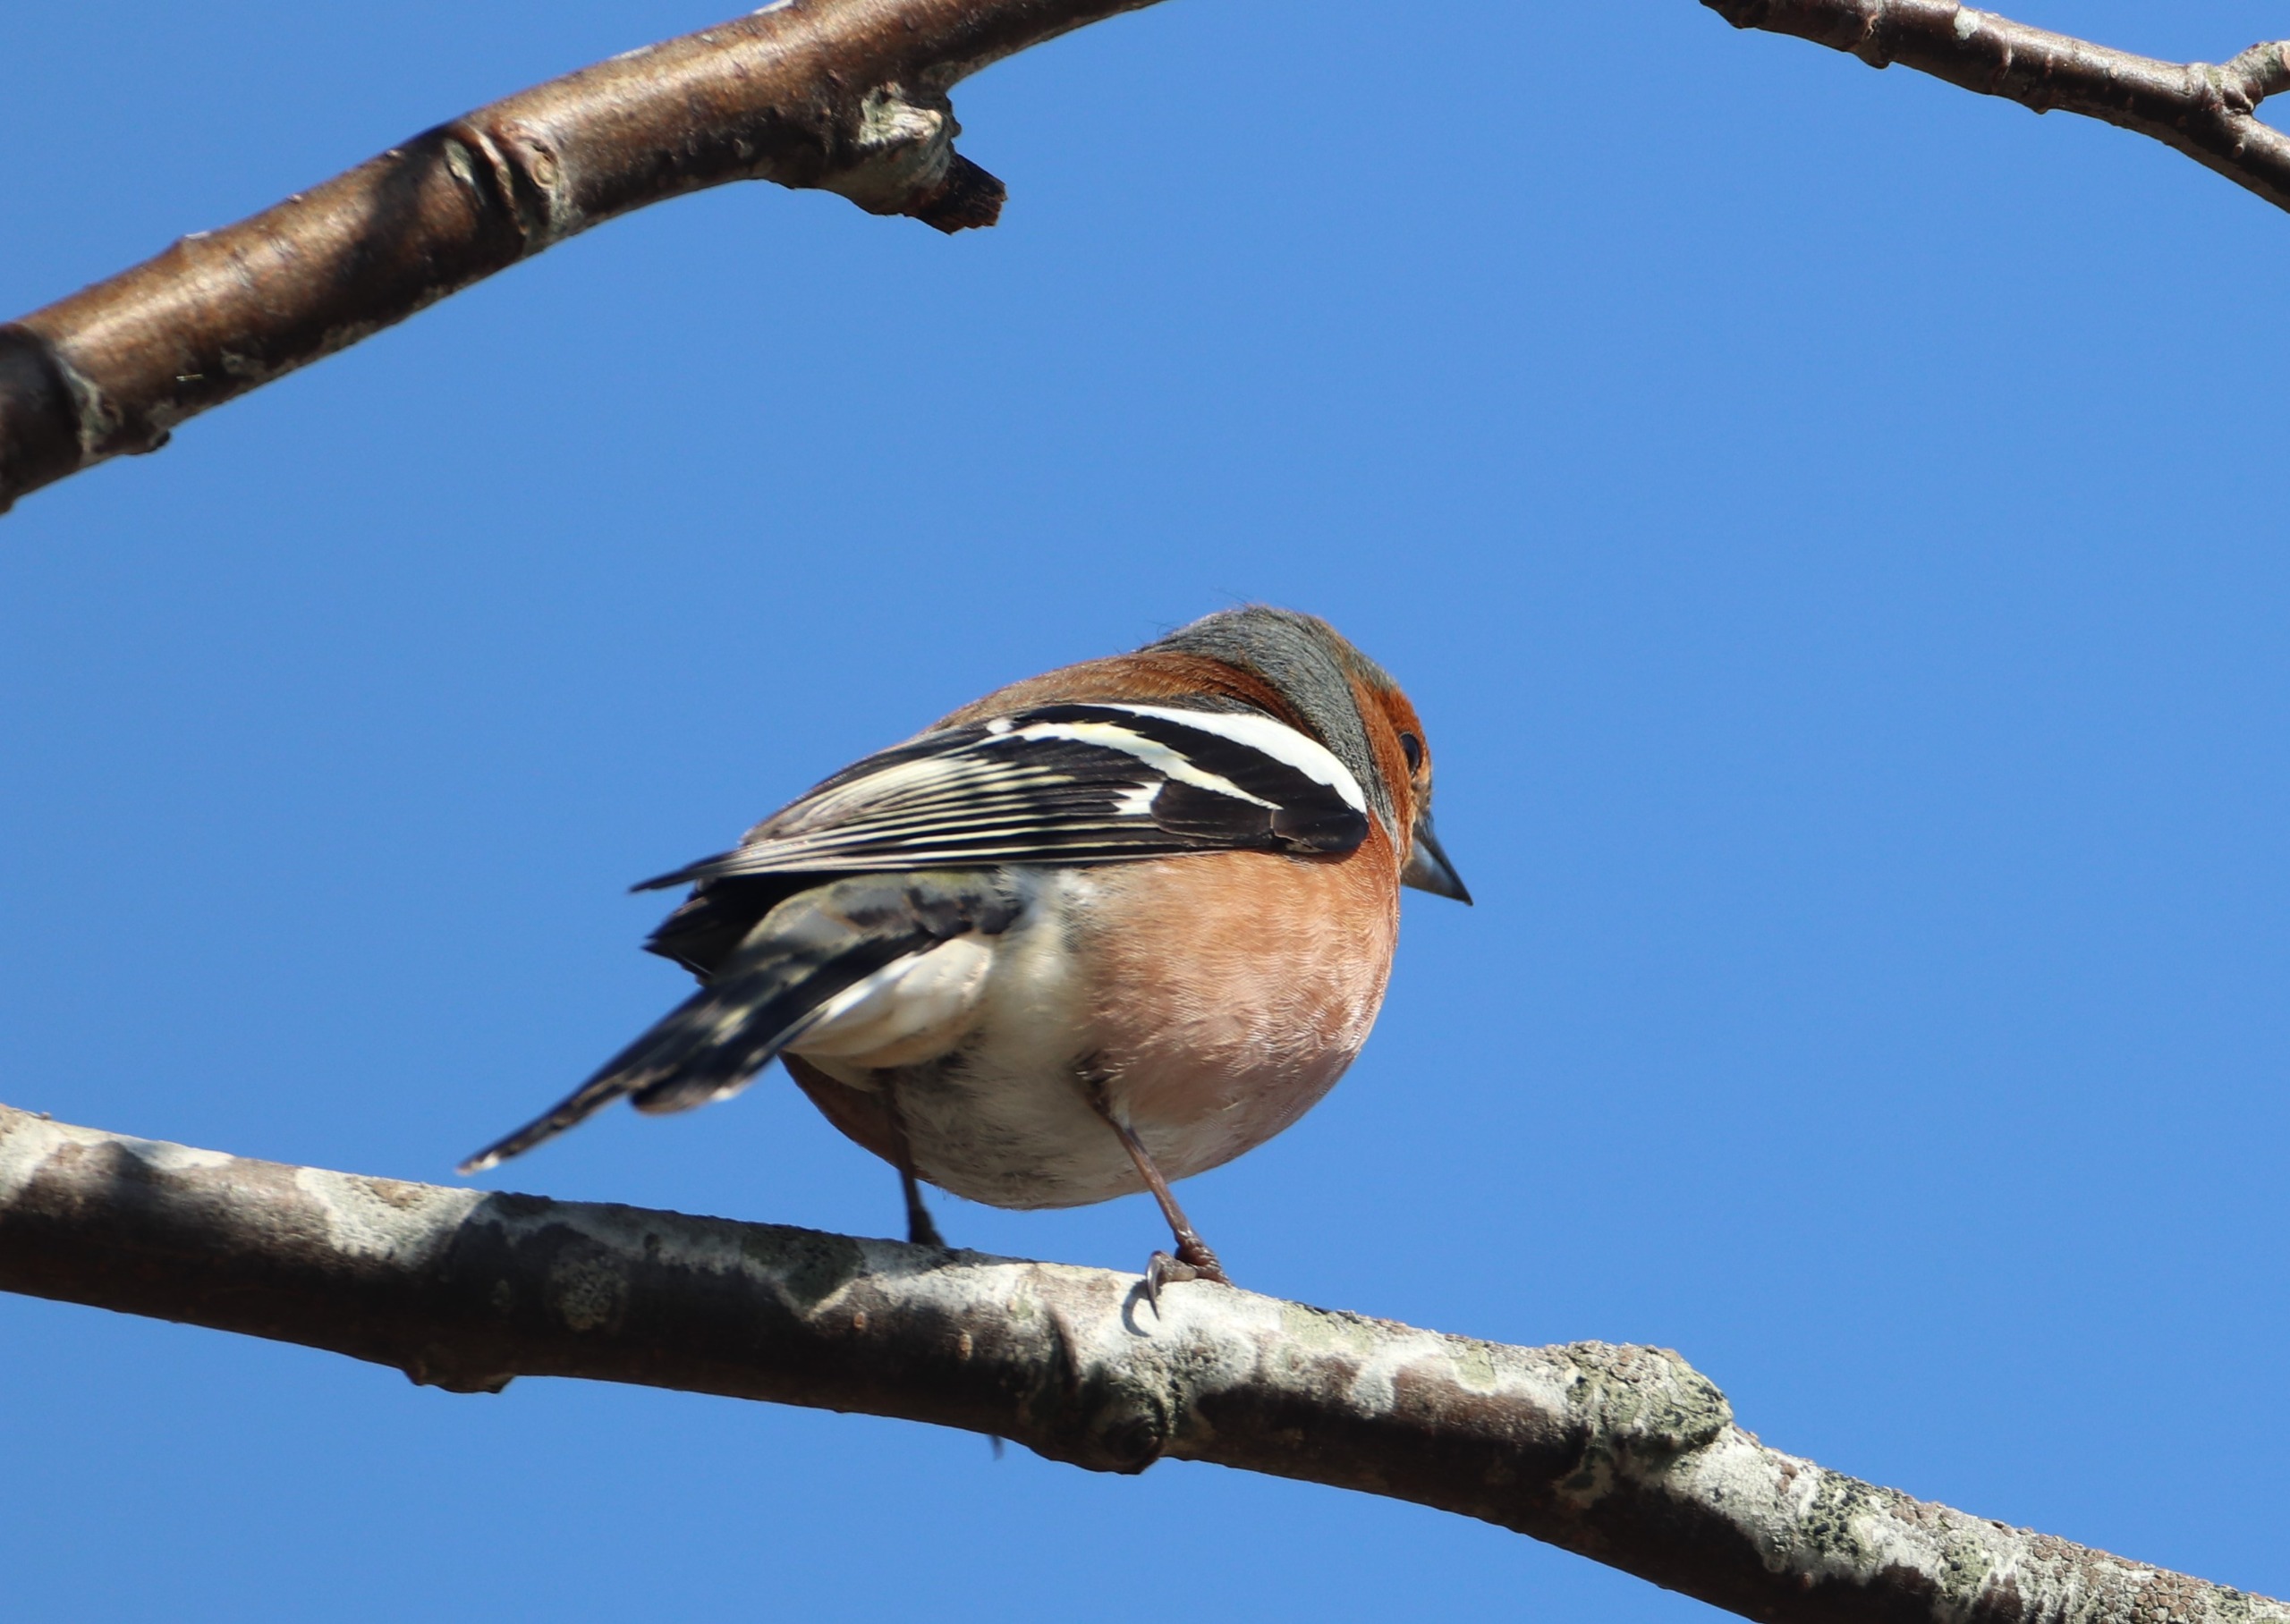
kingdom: Animalia
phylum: Chordata
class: Aves
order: Passeriformes
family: Fringillidae
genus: Fringilla
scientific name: Fringilla coelebs
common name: Bogfinke
